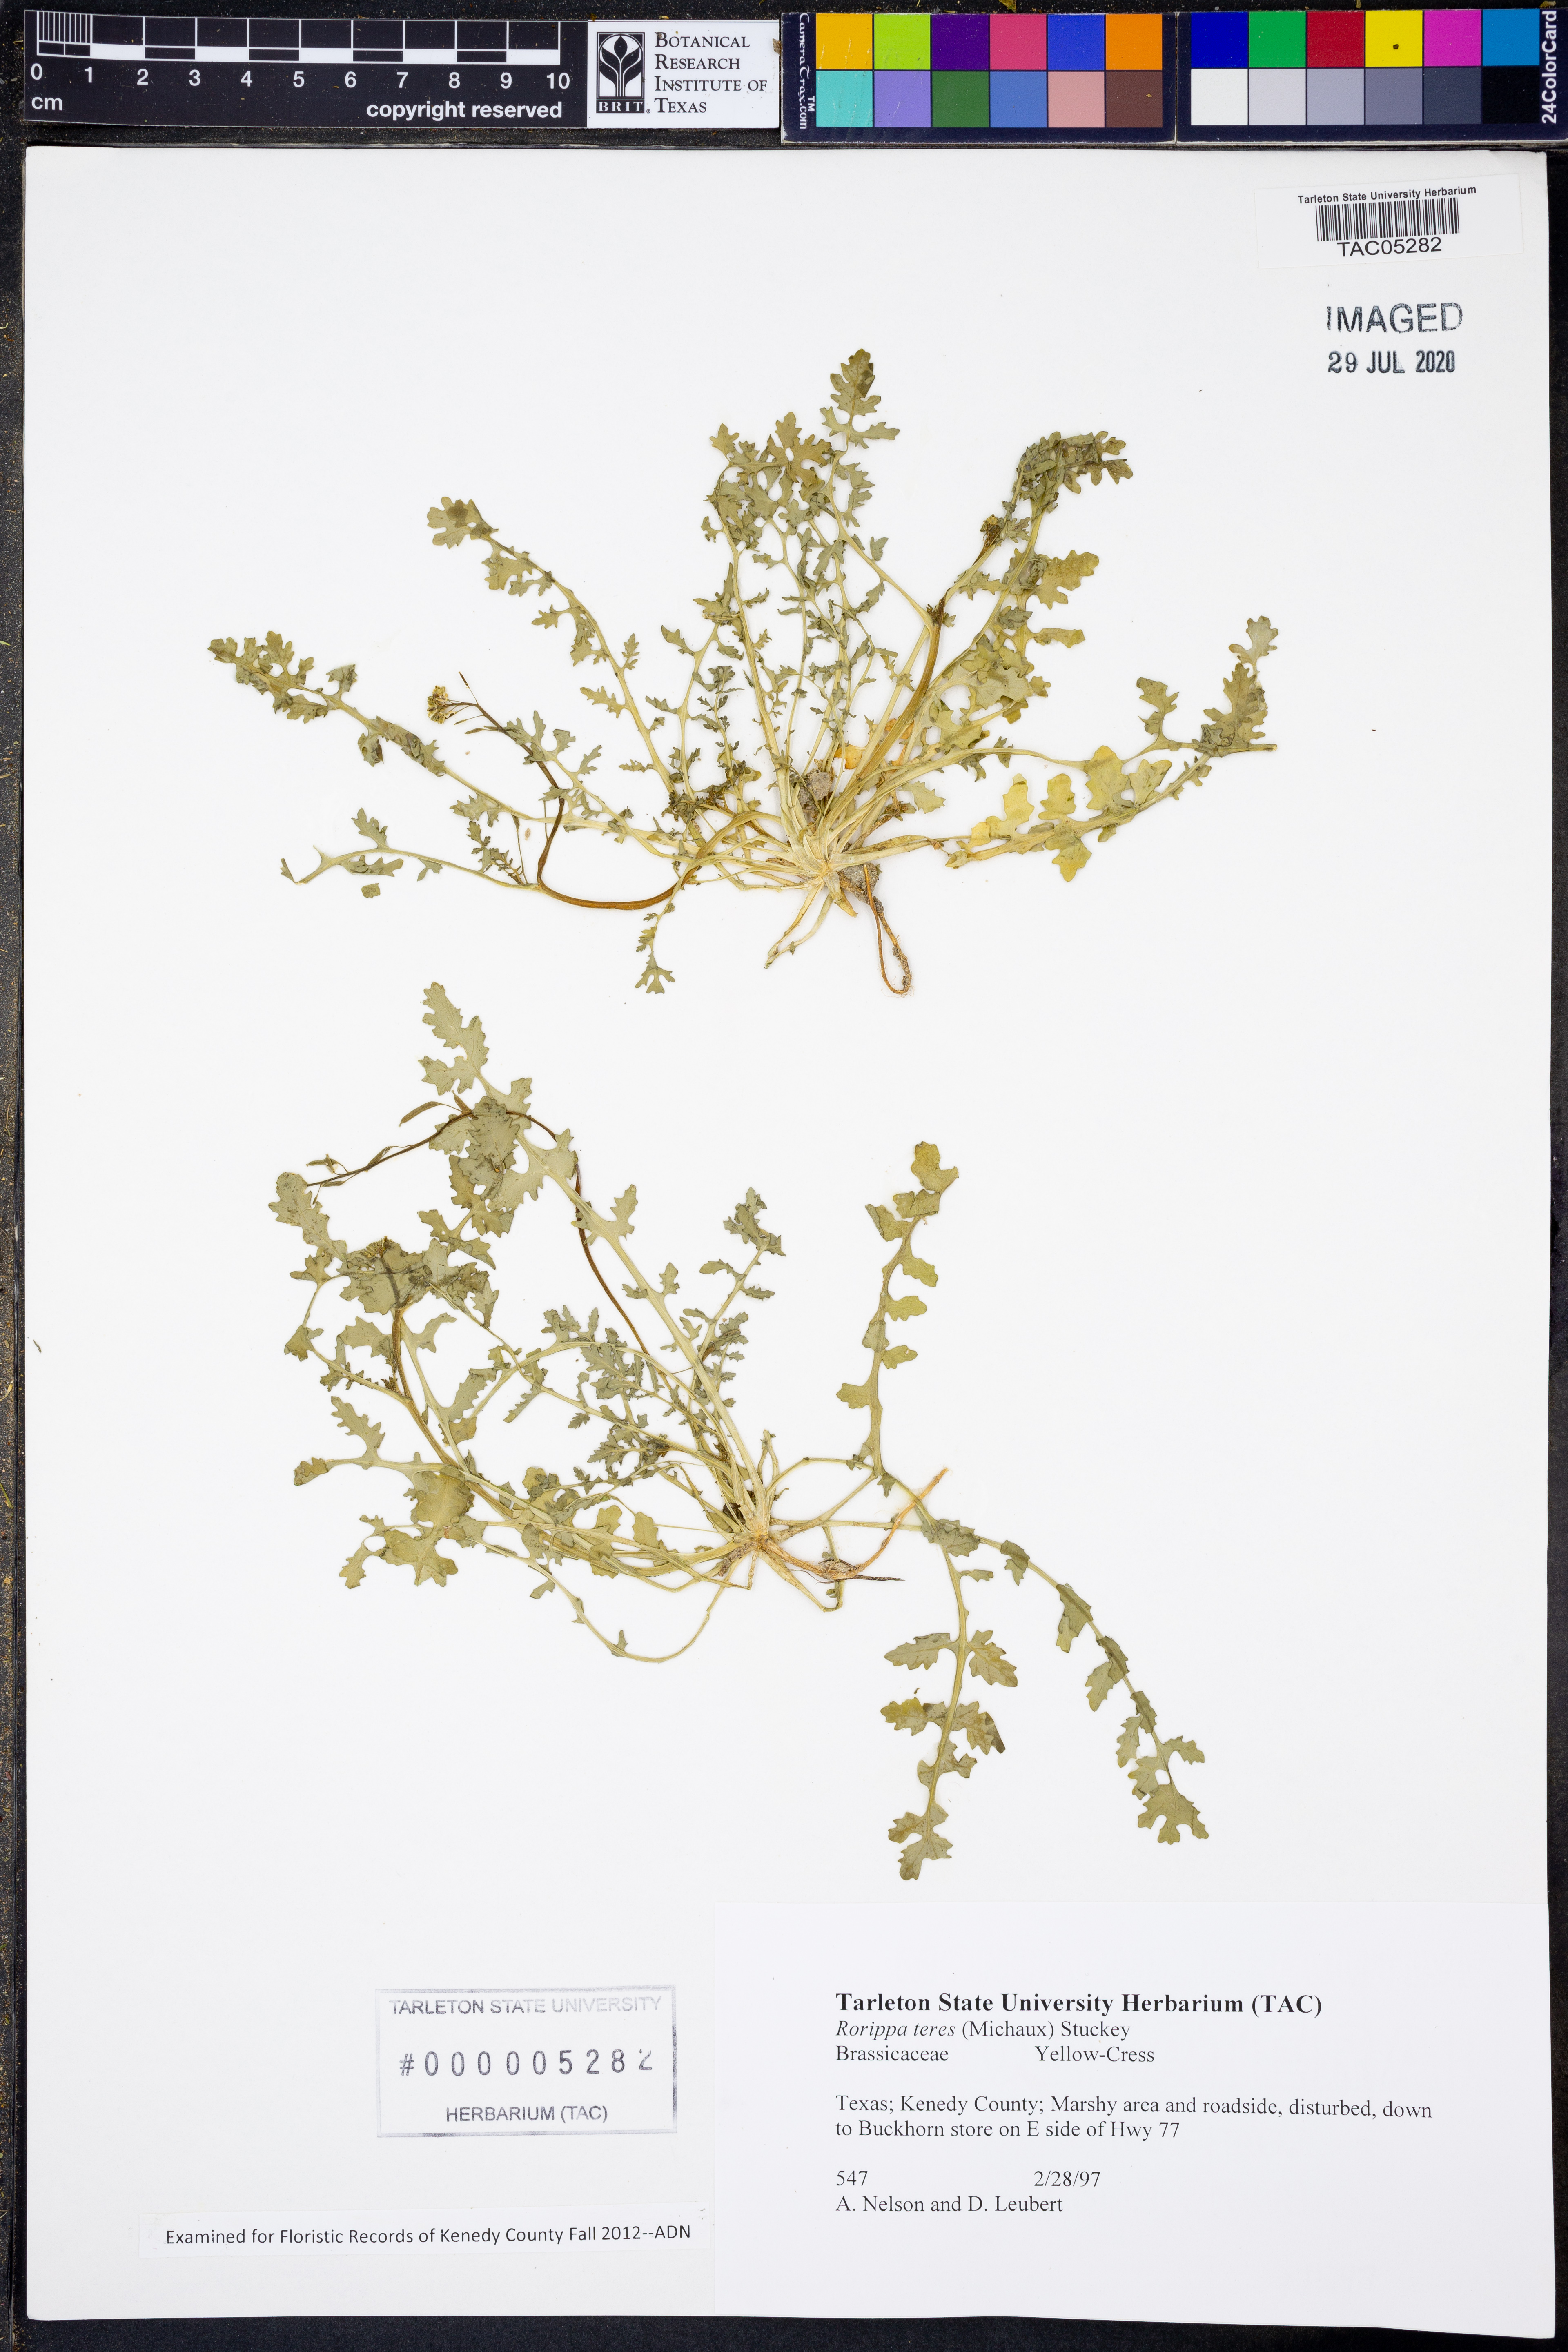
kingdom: Plantae
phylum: Tracheophyta
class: Magnoliopsida
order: Brassicales
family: Brassicaceae
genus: Rorippa
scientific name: Rorippa teres
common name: Southern marsh yellowcress
